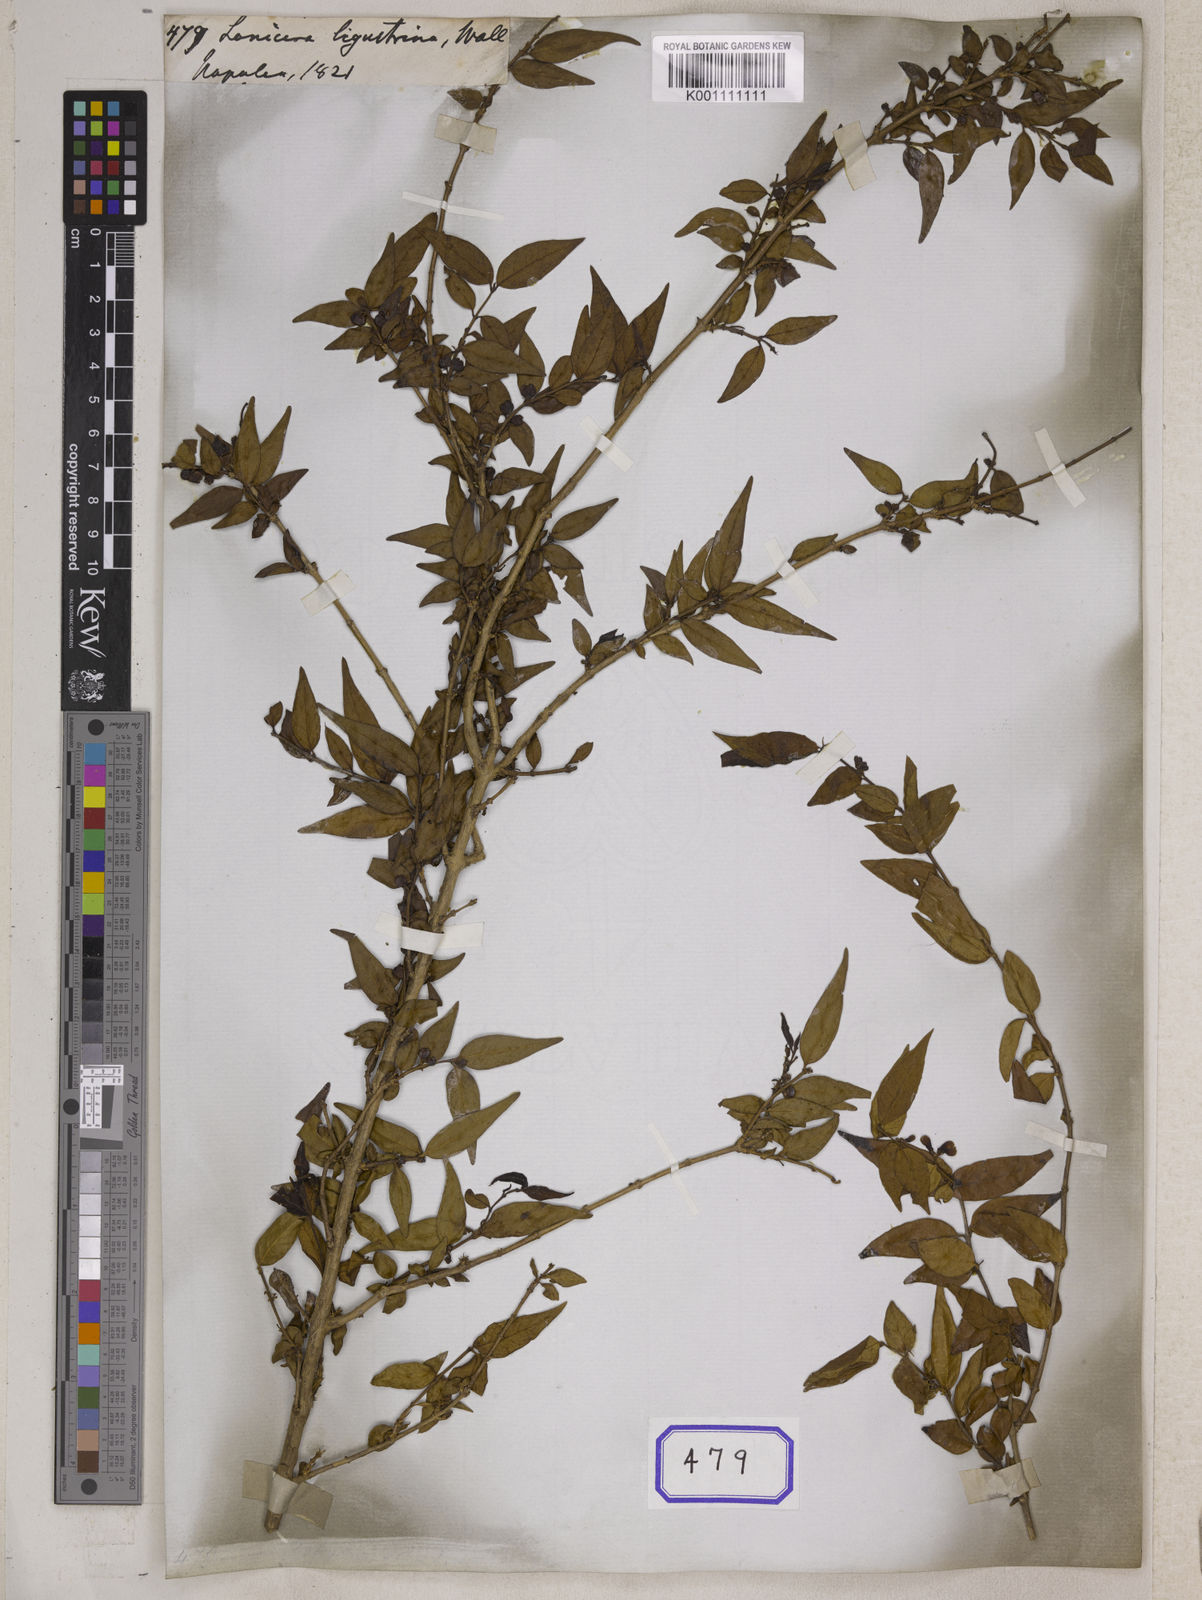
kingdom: Plantae
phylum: Tracheophyta
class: Magnoliopsida
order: Dipsacales
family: Caprifoliaceae
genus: Lonicera
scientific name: Lonicera ligustrina
